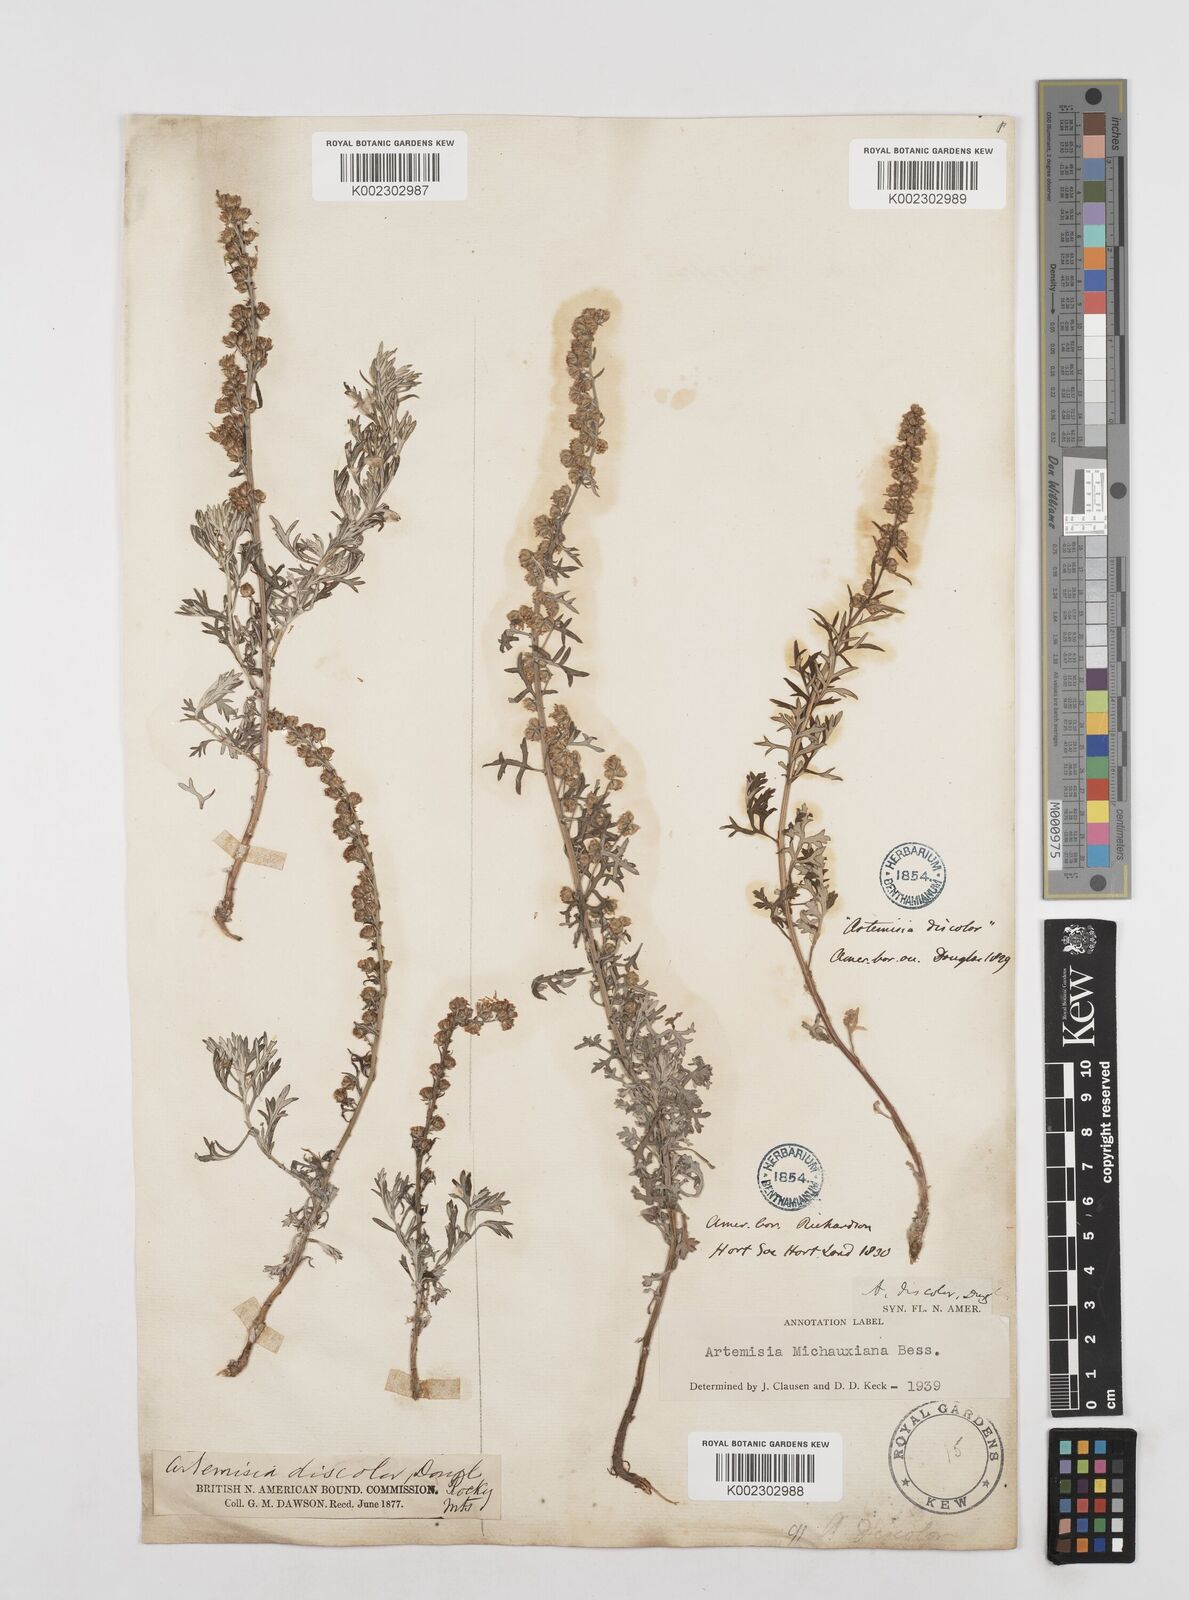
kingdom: Plantae
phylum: Tracheophyta
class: Magnoliopsida
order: Asterales
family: Asteraceae
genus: Artemisia
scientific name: Artemisia verlotiorum
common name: Chinese mugwort
